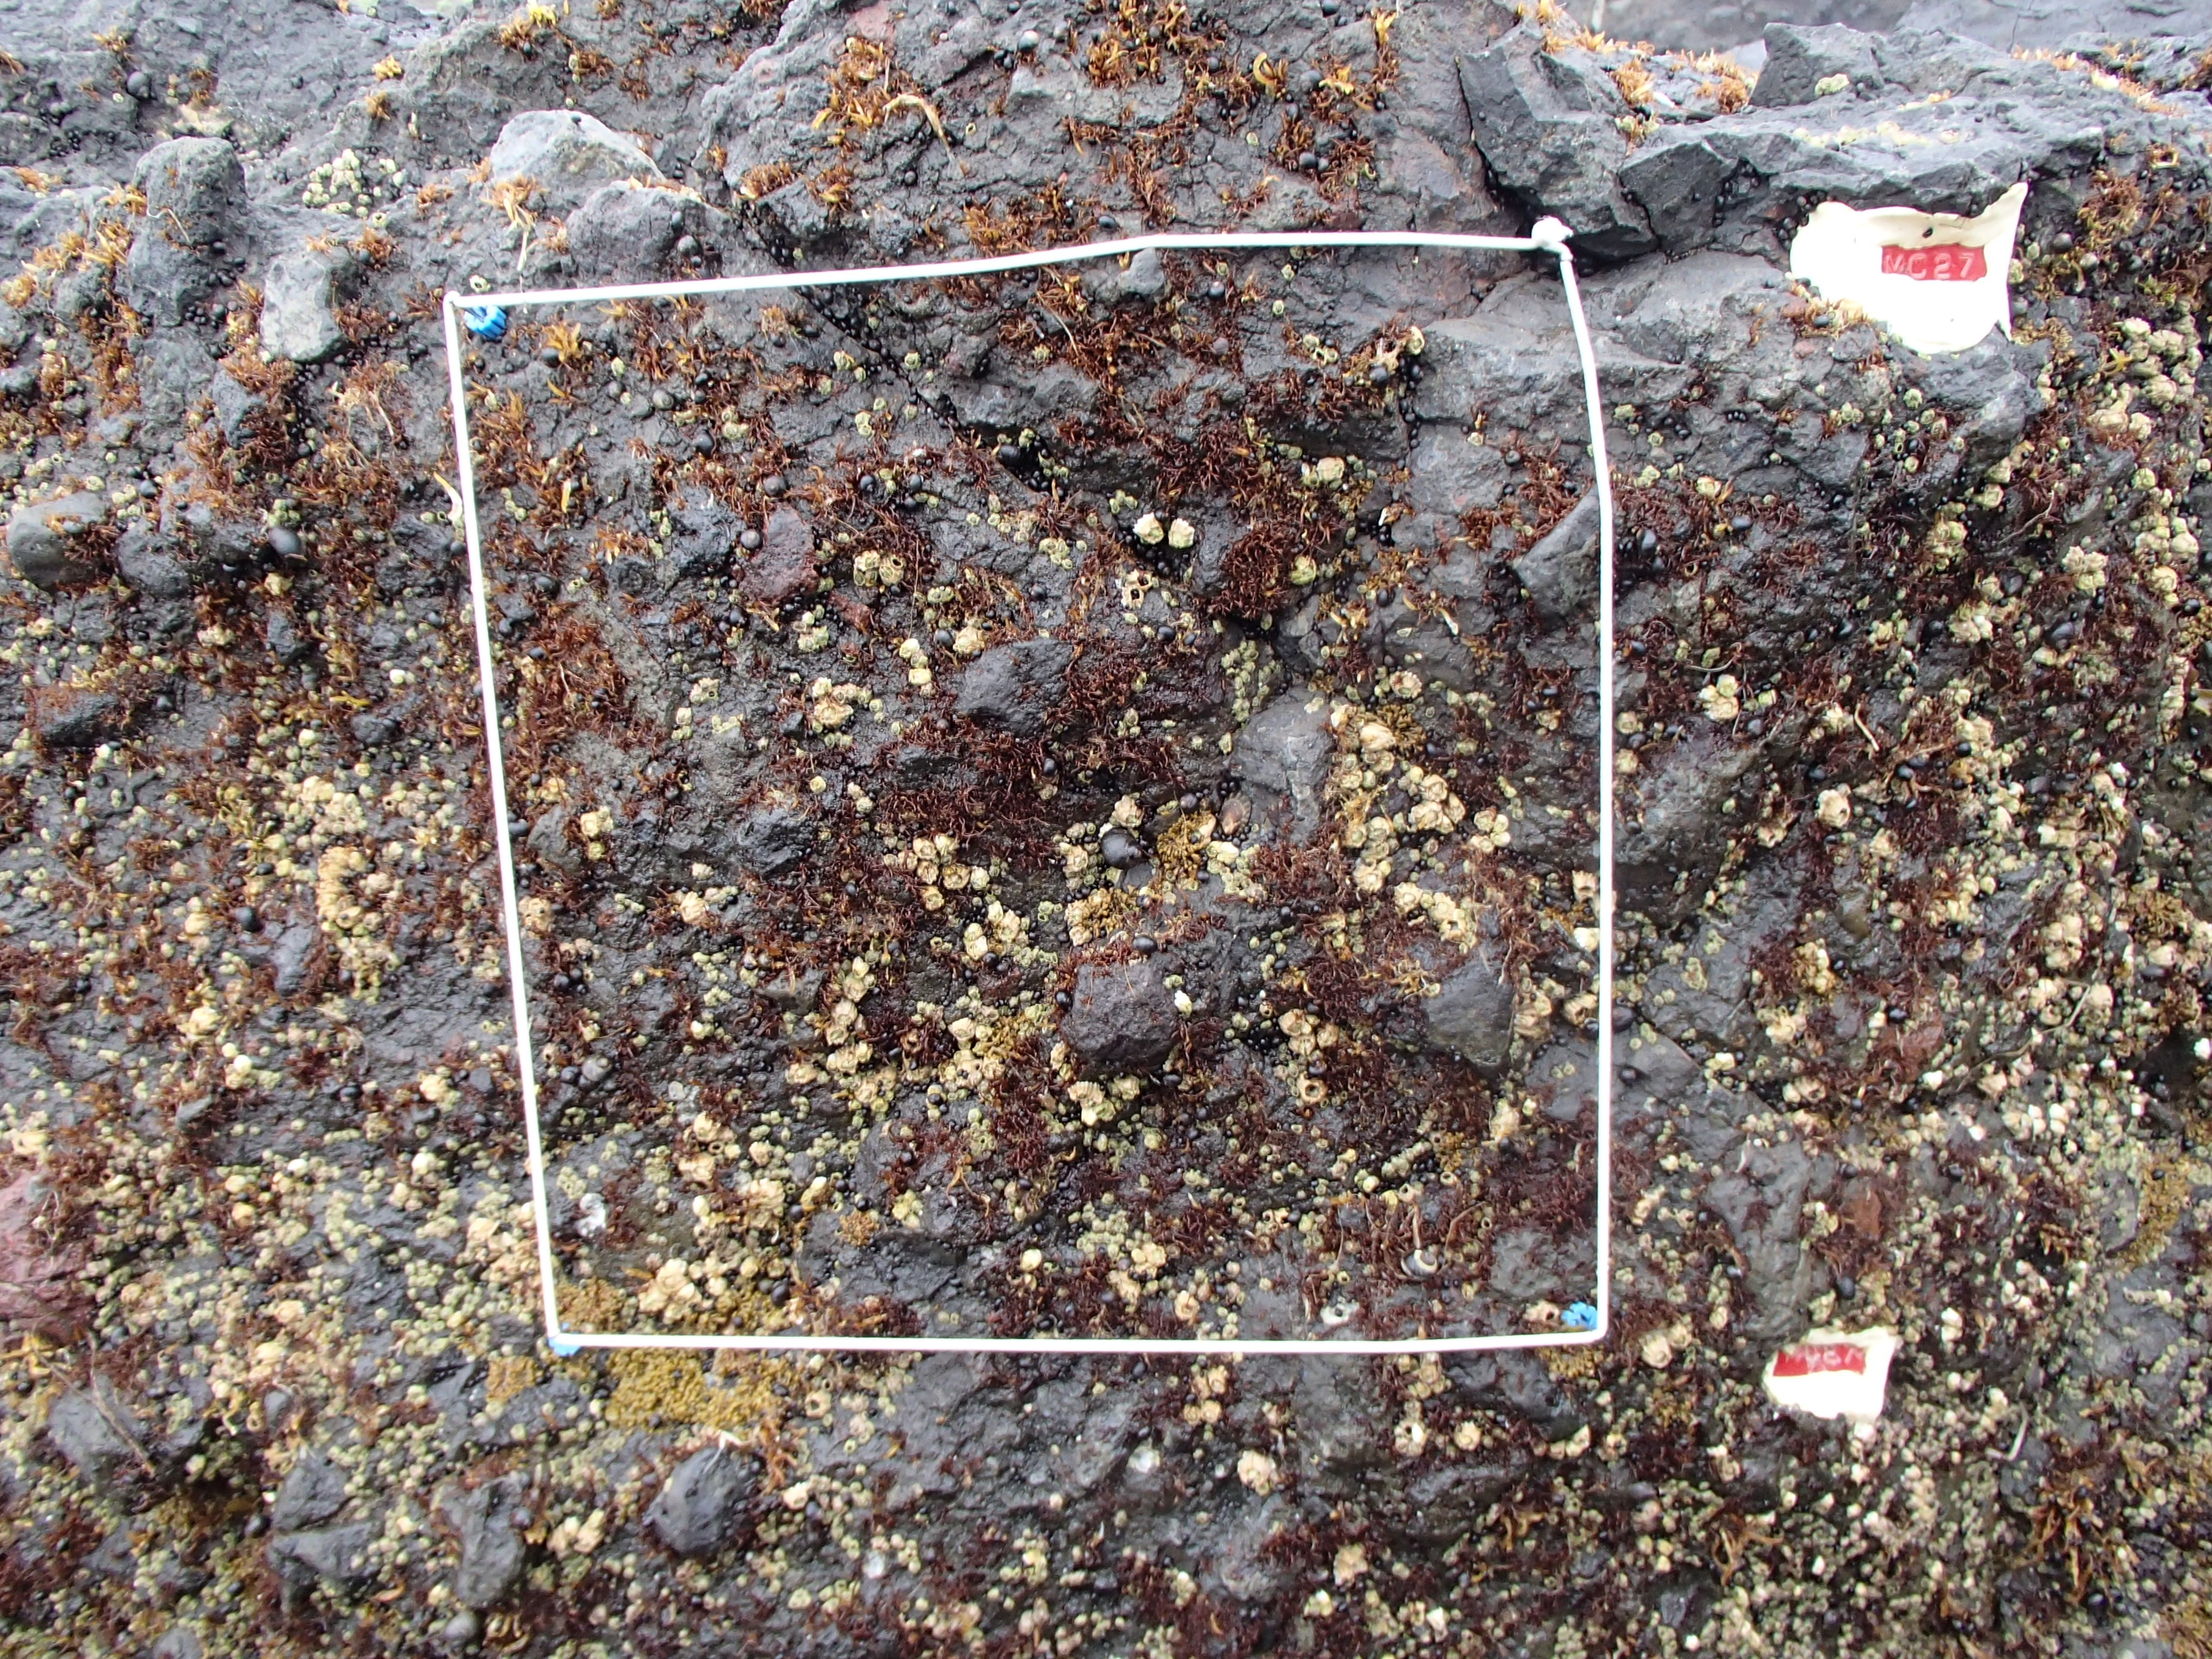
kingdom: Plantae
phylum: Rhodophyta
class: Florideophyceae
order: Gigartinales
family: Endocladiaceae
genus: Gloiopeltis
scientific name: Gloiopeltis furcata
